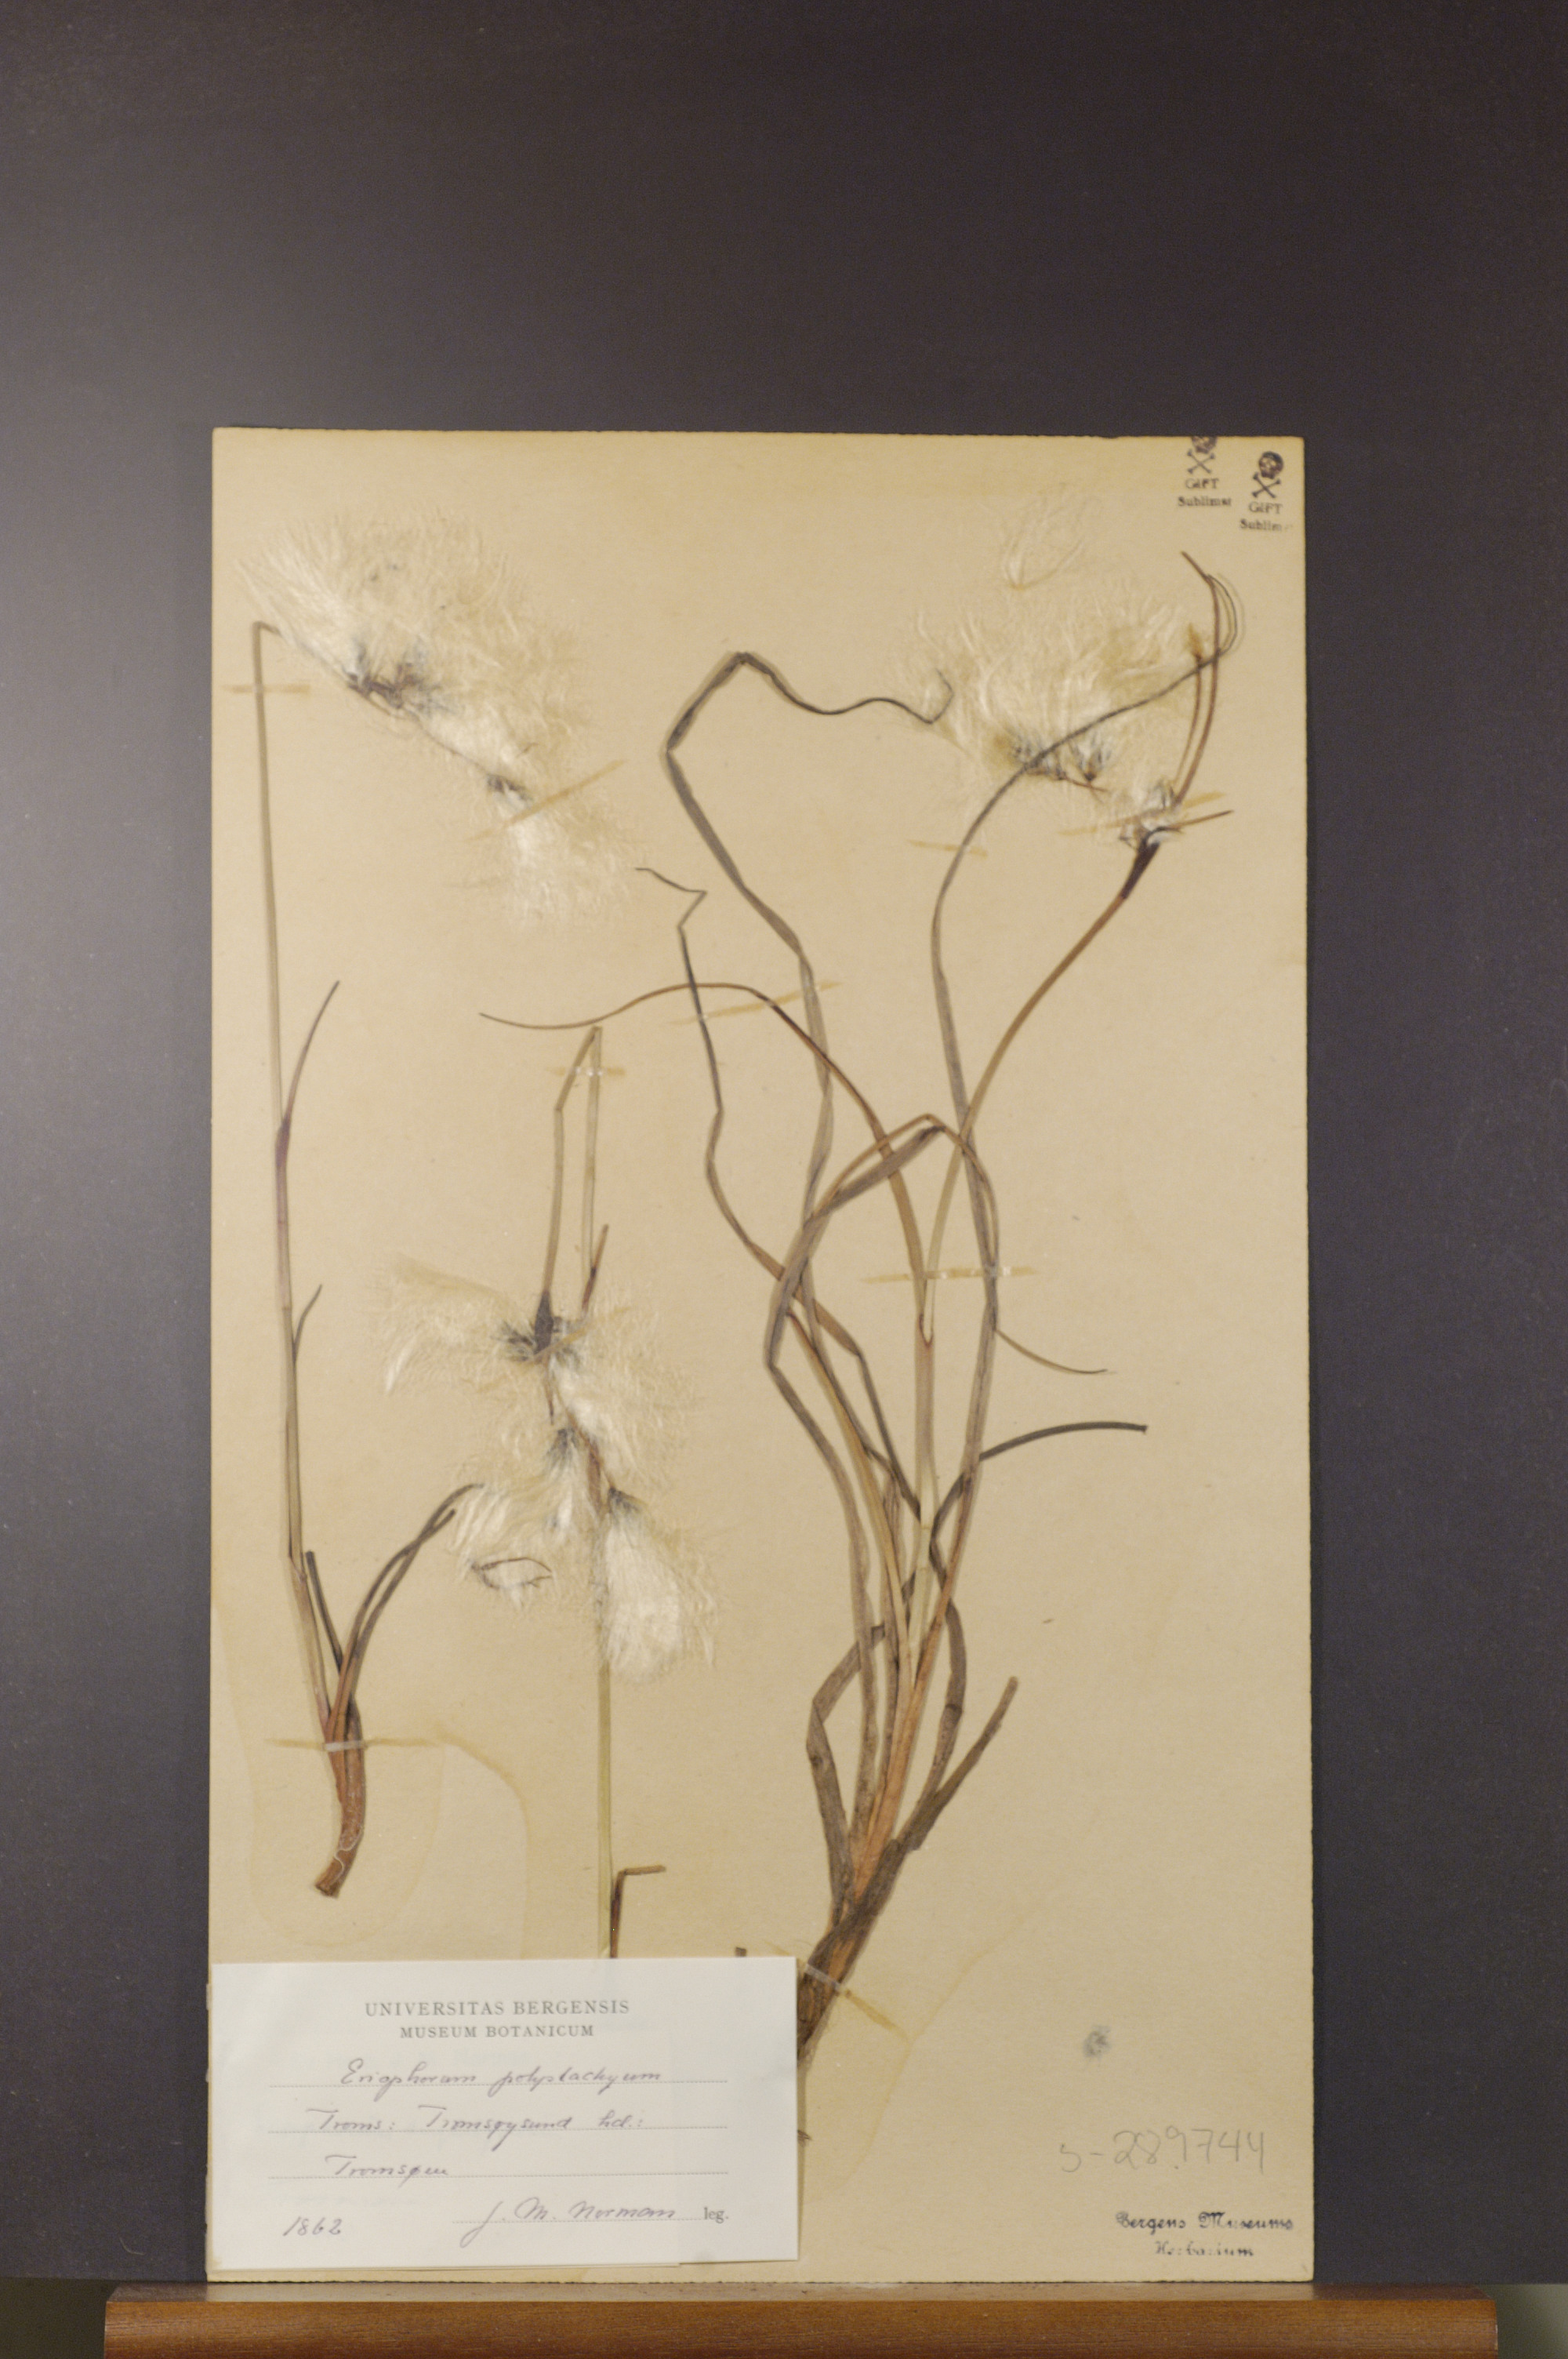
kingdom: Plantae
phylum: Tracheophyta
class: Liliopsida
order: Poales
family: Cyperaceae
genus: Eriophorum
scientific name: Eriophorum angustifolium
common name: Common cottongrass
